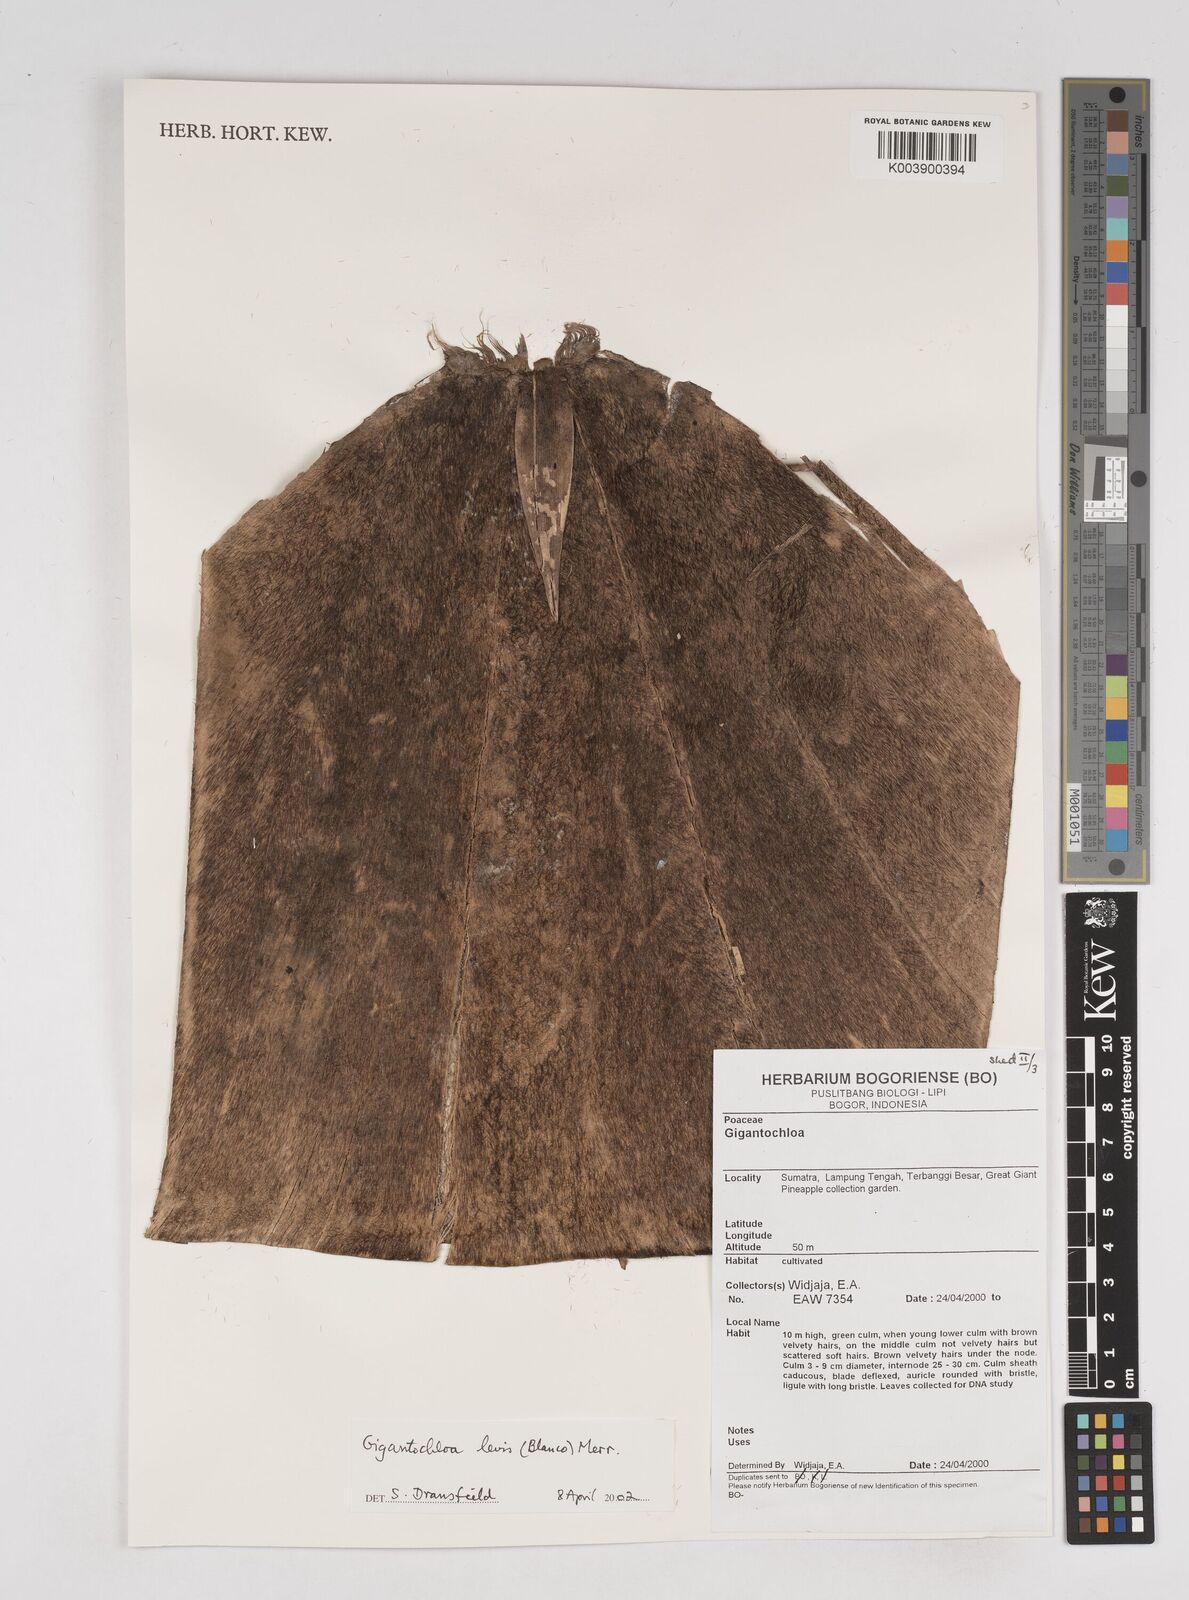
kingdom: Plantae
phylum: Tracheophyta
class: Liliopsida
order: Poales
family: Poaceae
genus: Gigantochloa
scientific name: Gigantochloa levis
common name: Smooth-shoot gigantochloa
